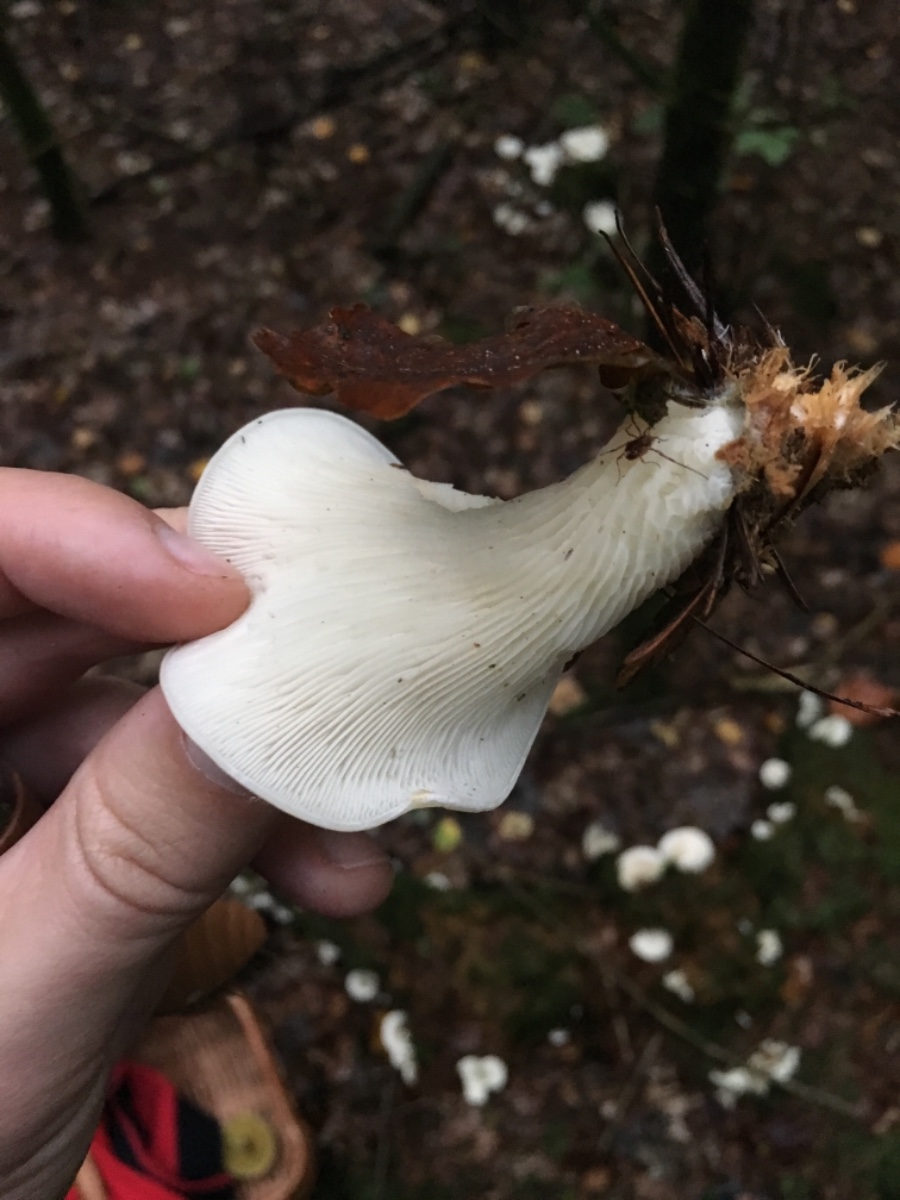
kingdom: Fungi
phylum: Basidiomycota
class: Agaricomycetes
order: Agaricales
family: Marasmiaceae
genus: Pleurocybella
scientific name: Pleurocybella porrigens
